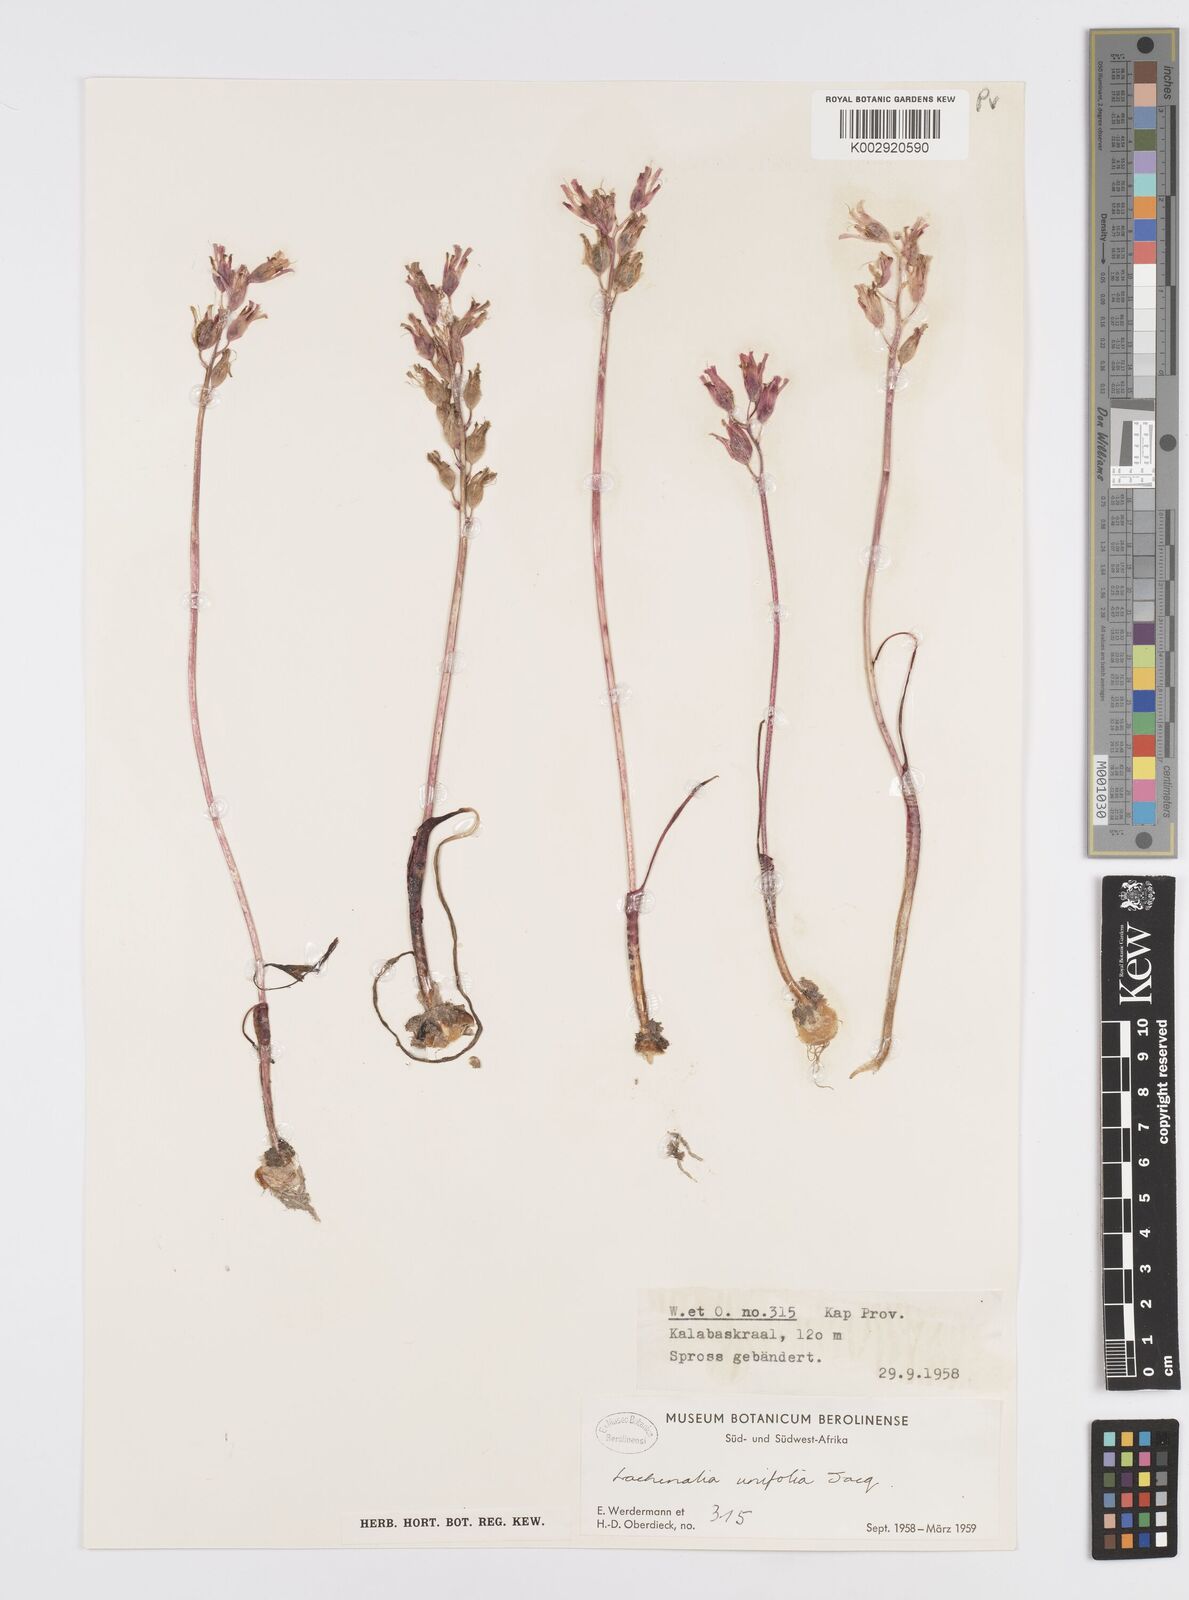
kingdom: Plantae
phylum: Tracheophyta
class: Liliopsida
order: Asparagales
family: Asparagaceae
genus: Lachenalia
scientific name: Lachenalia unifolia
